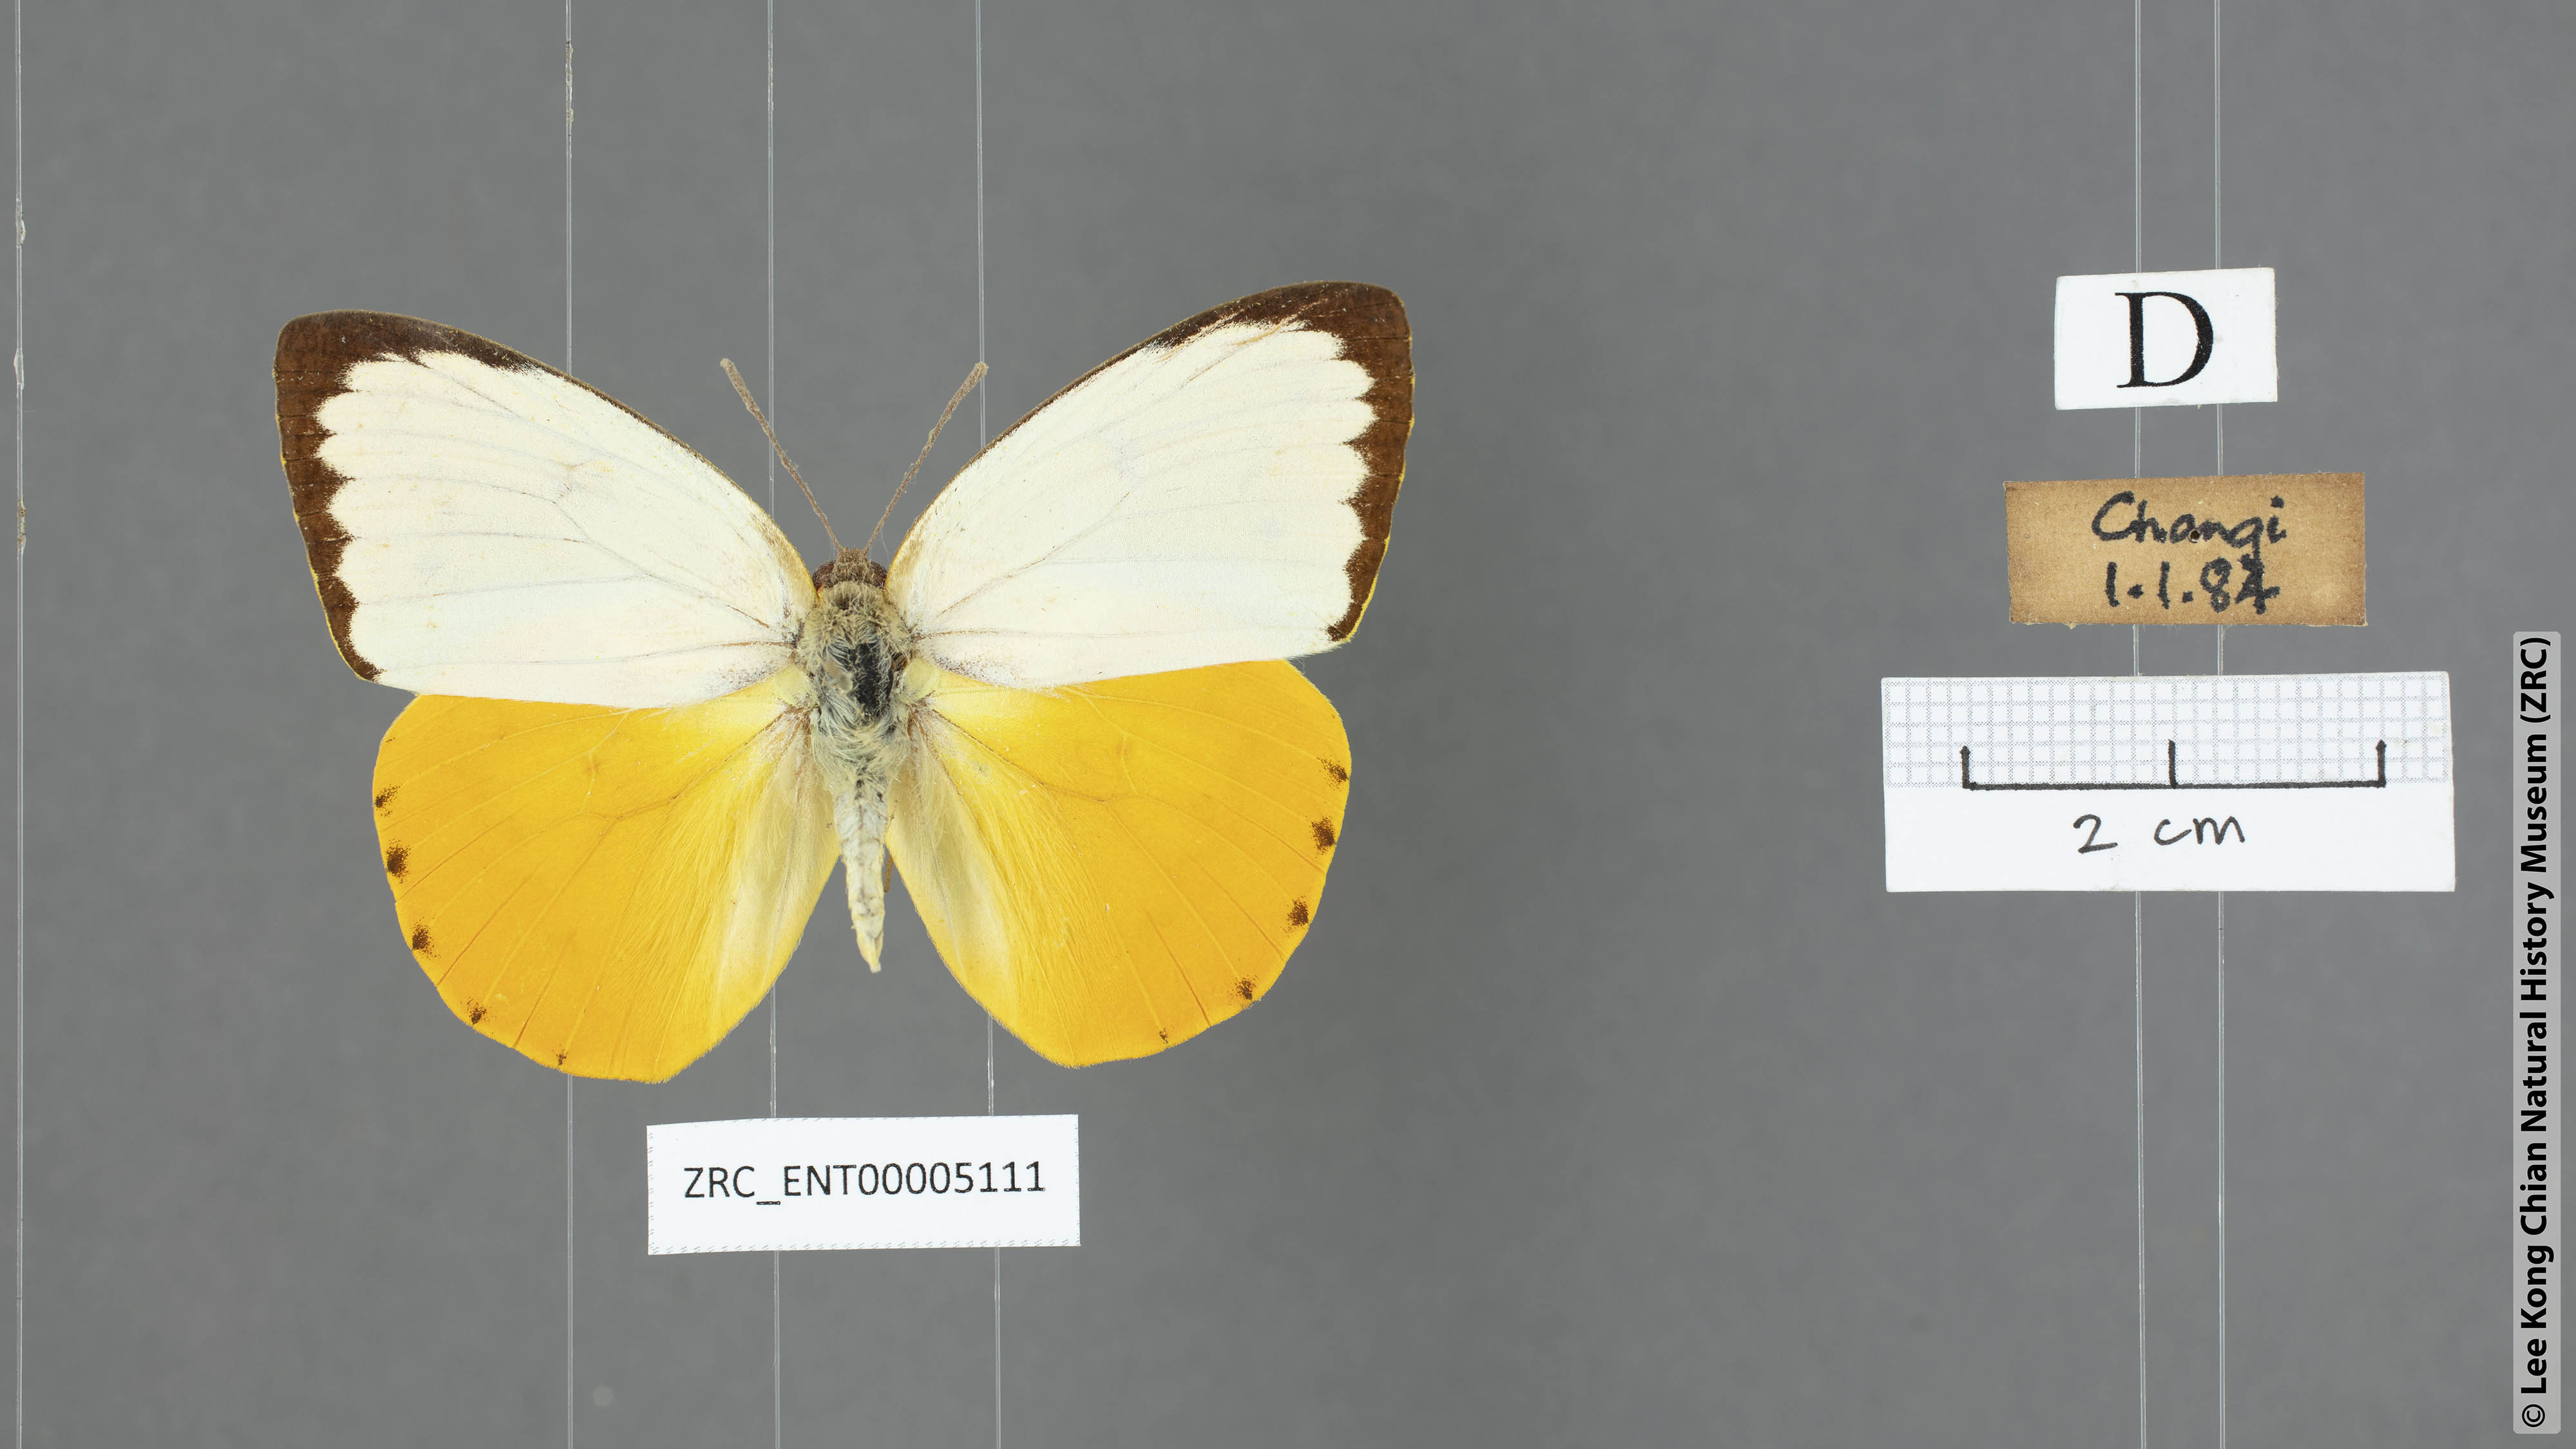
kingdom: Animalia
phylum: Arthropoda
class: Insecta
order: Lepidoptera
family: Pieridae
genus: Catopsilia
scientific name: Catopsilia scylla
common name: Orange emigrant
